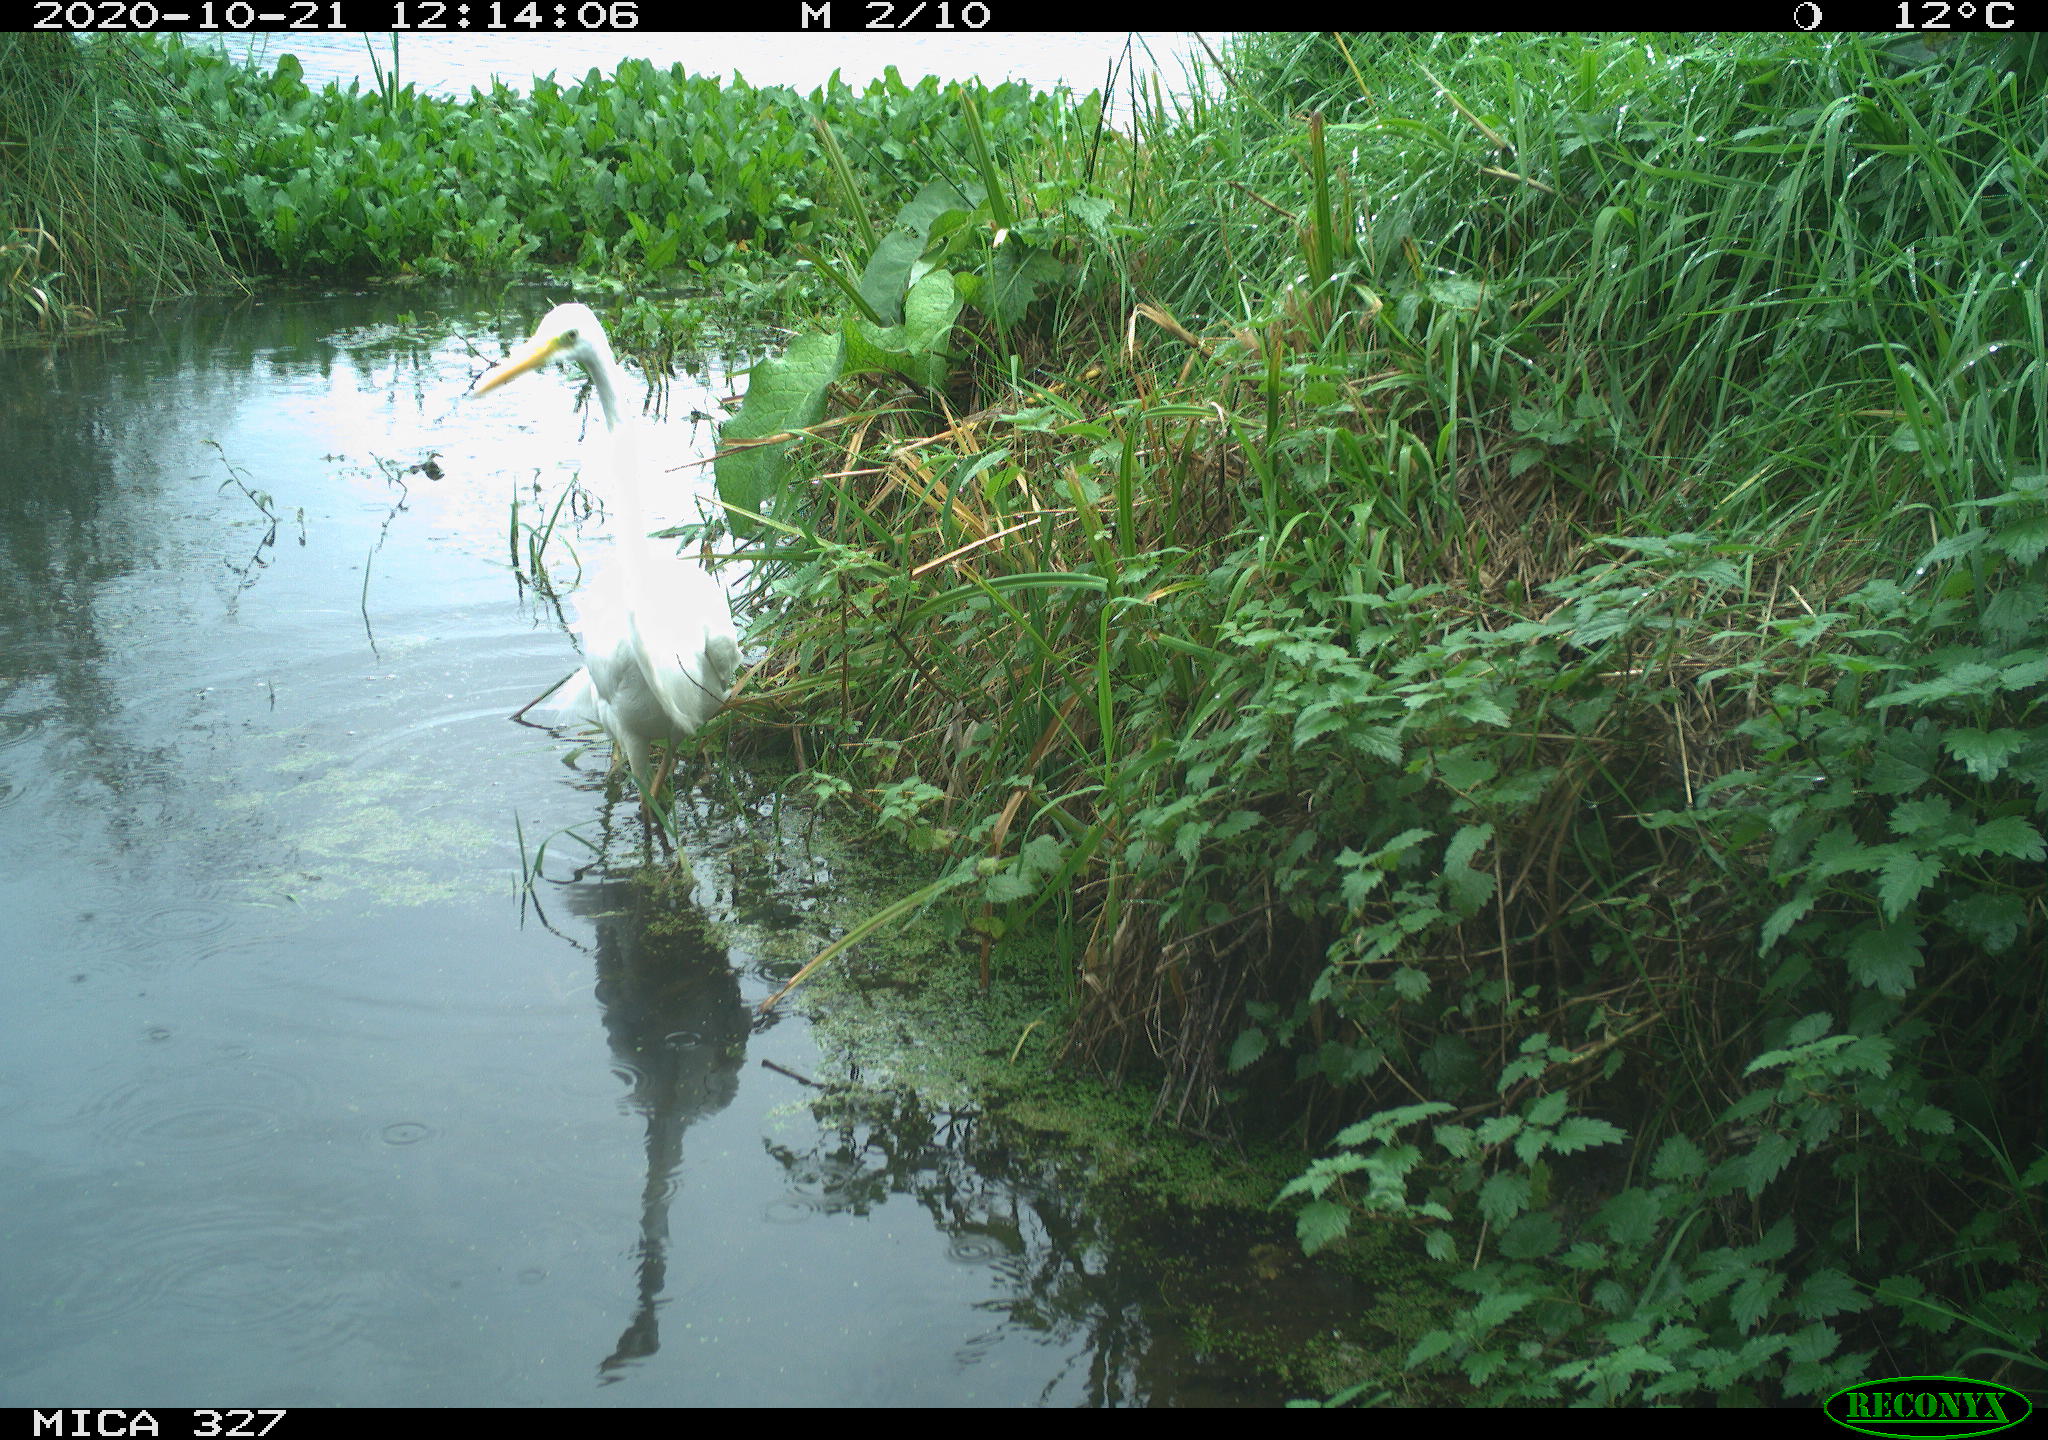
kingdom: Animalia
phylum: Chordata
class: Aves
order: Pelecaniformes
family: Ardeidae
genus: Ardea
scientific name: Ardea alba
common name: Great egret
